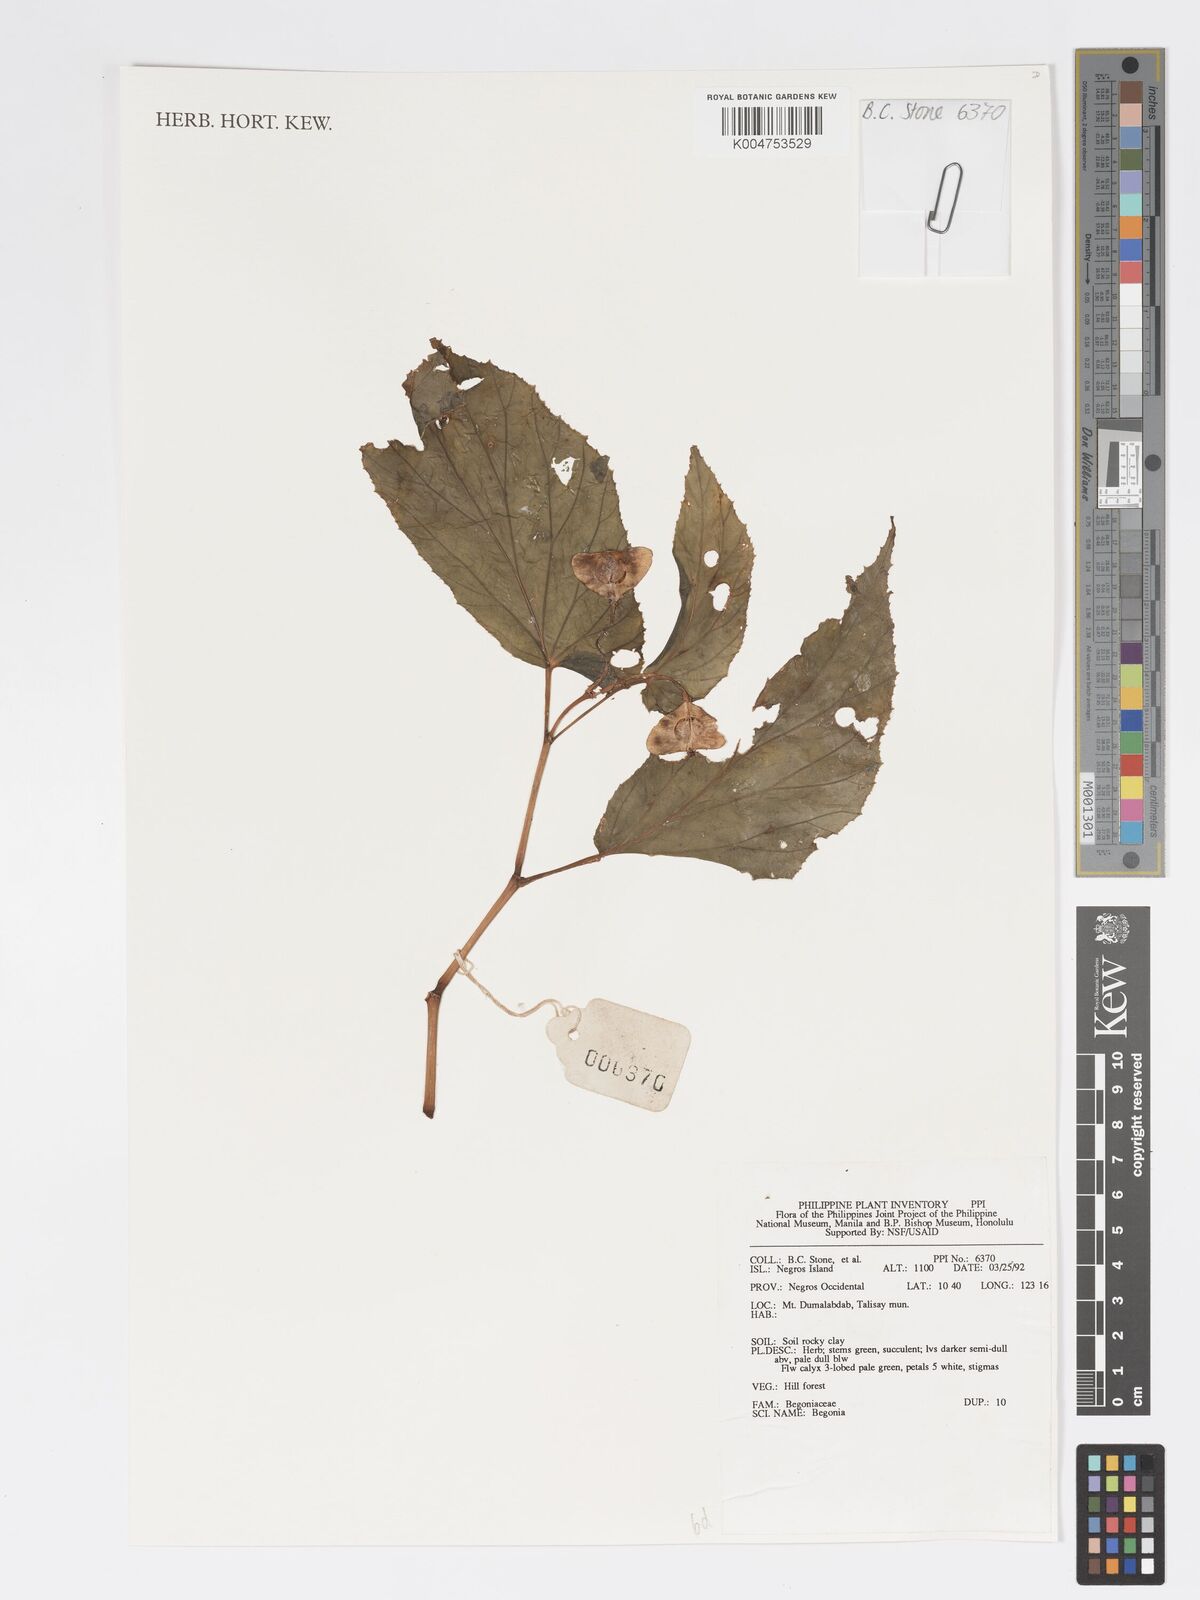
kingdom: Plantae
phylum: Tracheophyta
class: Magnoliopsida
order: Cucurbitales
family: Begoniaceae
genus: Begonia
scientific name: Begonia
